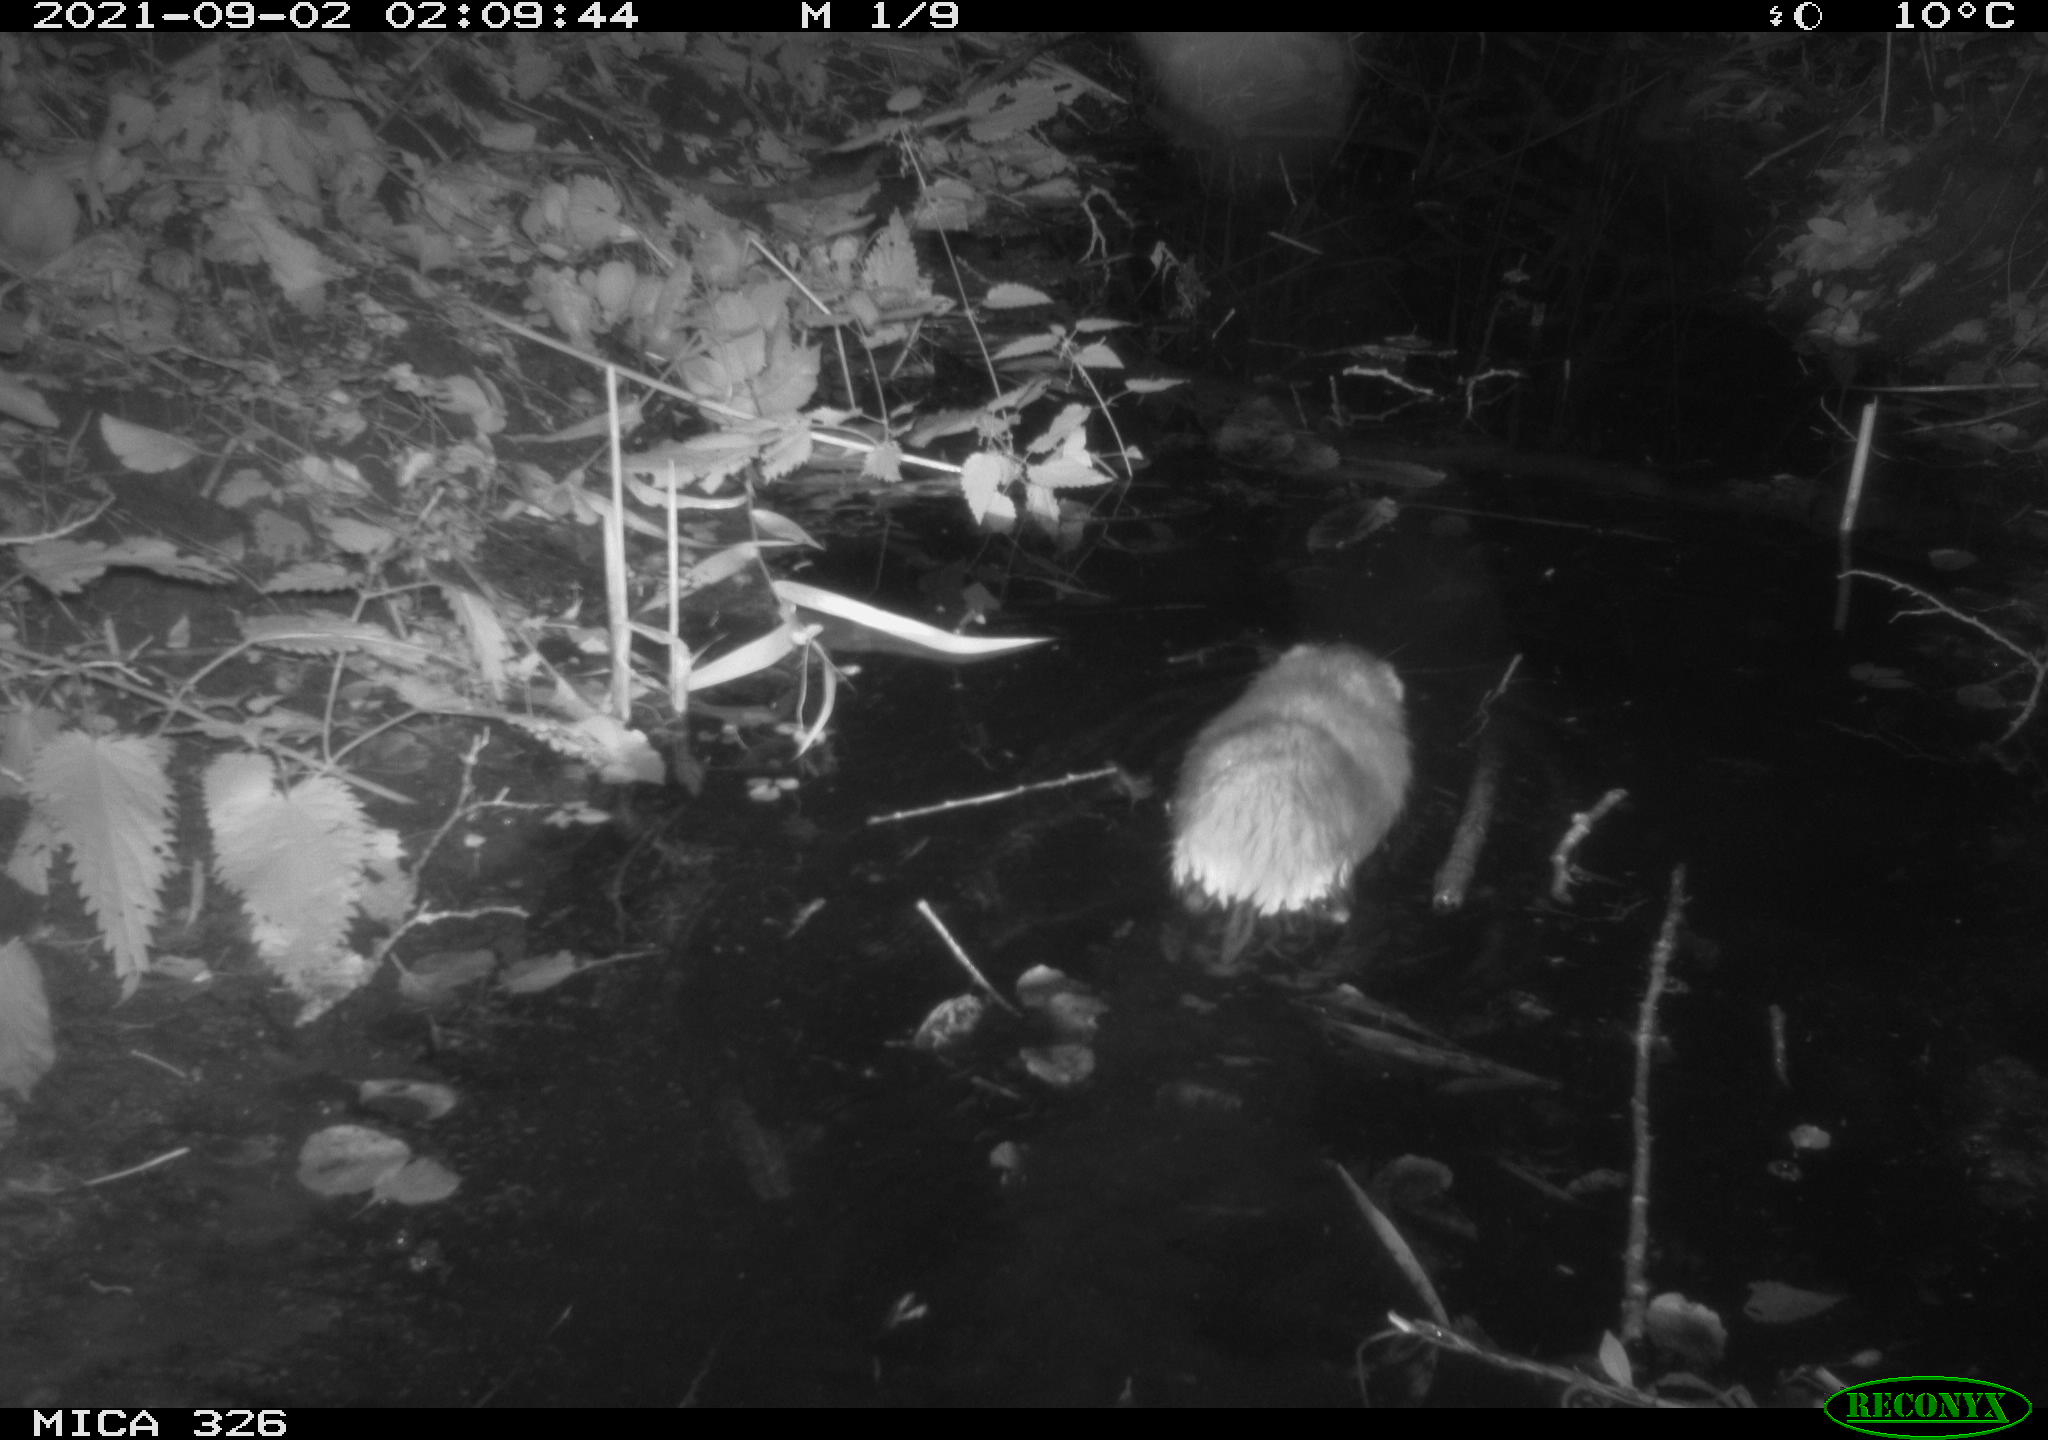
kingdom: Animalia
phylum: Chordata
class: Mammalia
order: Rodentia
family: Cricetidae
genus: Ondatra
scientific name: Ondatra zibethicus
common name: Muskrat
